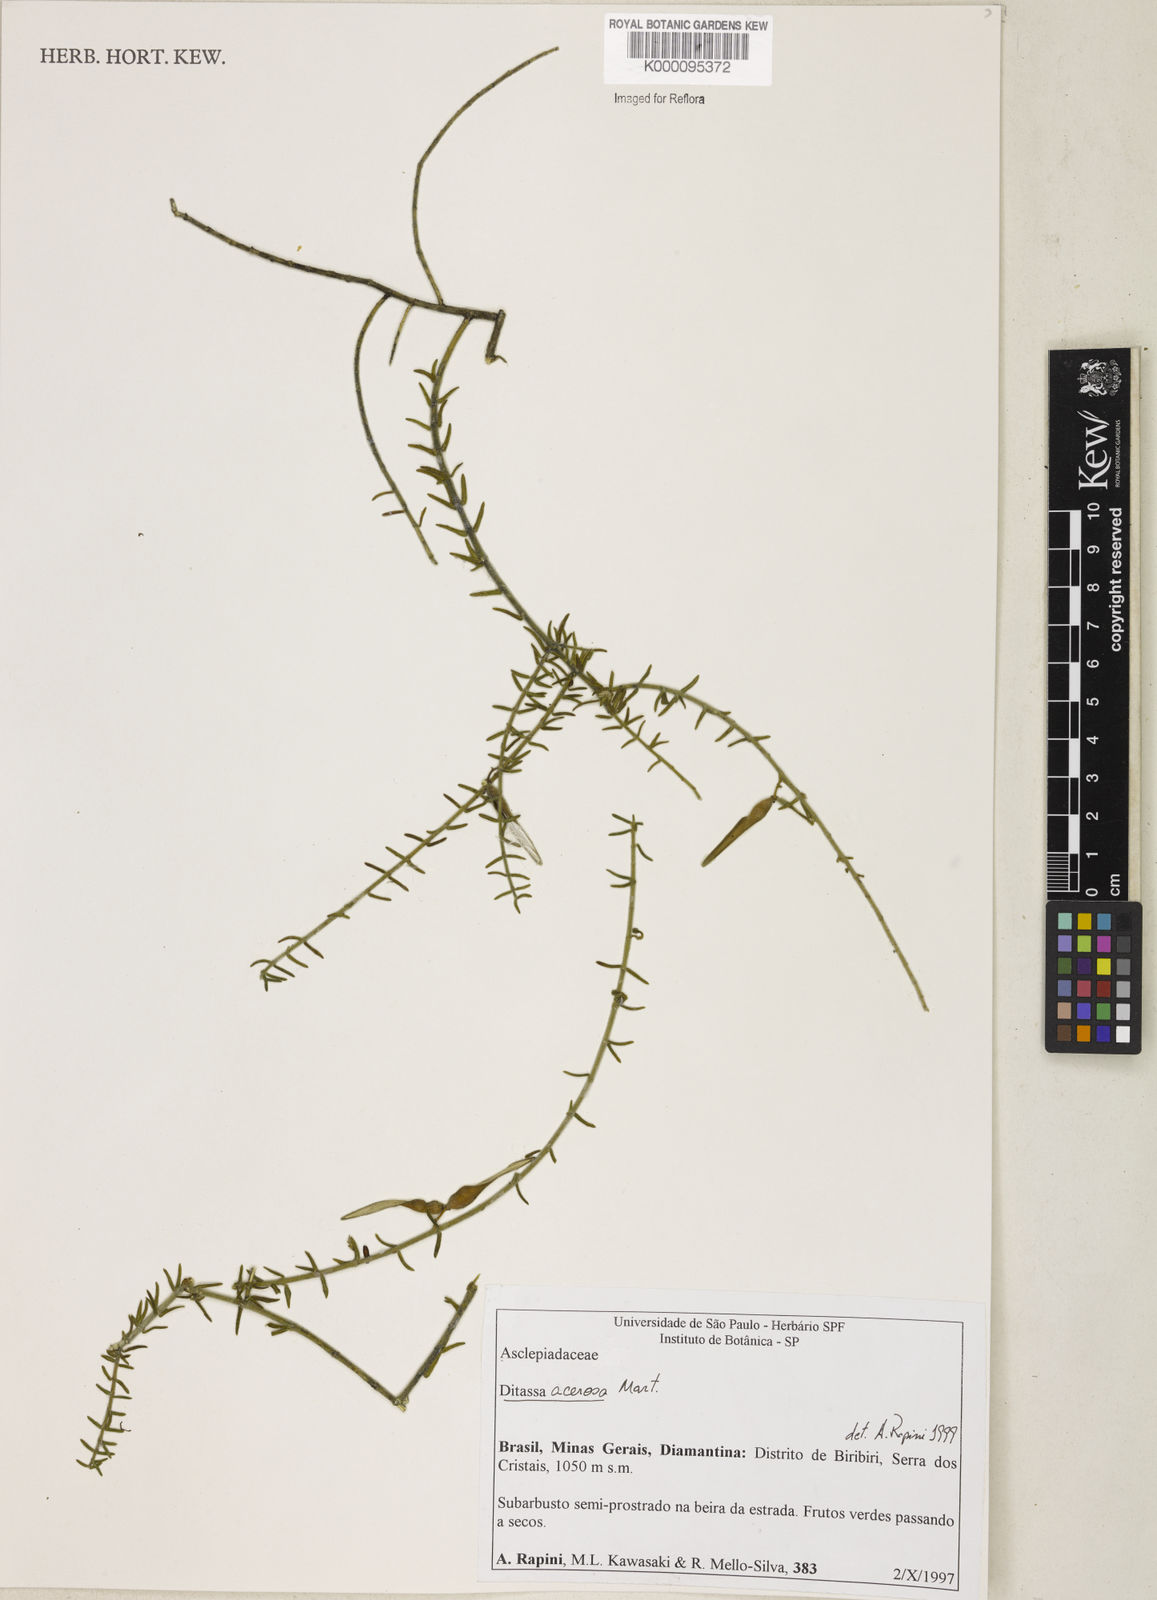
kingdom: Plantae
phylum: Tracheophyta
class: Magnoliopsida
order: Gentianales
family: Apocynaceae
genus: Minaria
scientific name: Minaria acerosa
